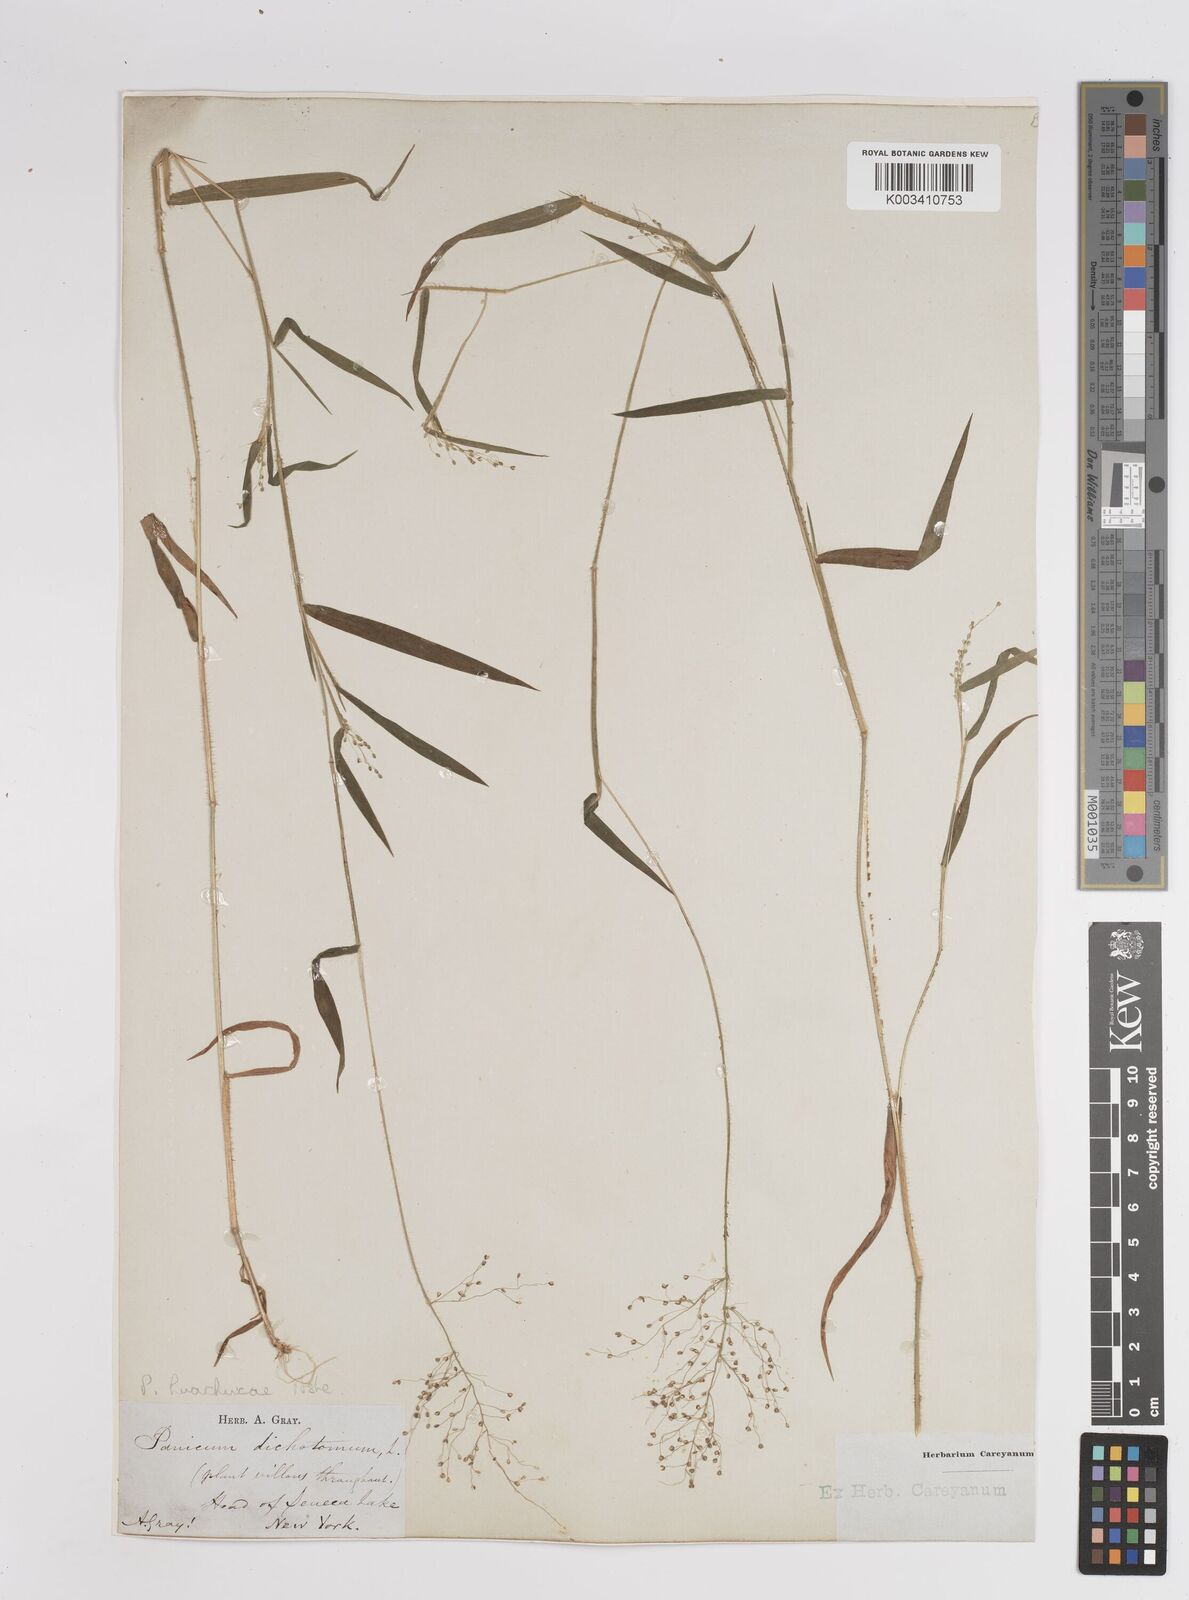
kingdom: Plantae
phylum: Tracheophyta
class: Liliopsida
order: Poales
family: Poaceae
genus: Dichanthelium
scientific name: Dichanthelium acuminatum
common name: Hairy panic grass
